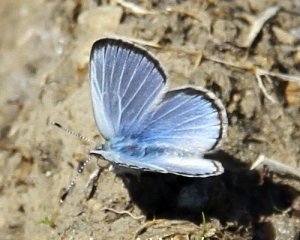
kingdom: Animalia
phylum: Arthropoda
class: Insecta
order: Lepidoptera
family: Lycaenidae
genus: Glaucopsyche
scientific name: Glaucopsyche lygdamus
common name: Silvery Blue
